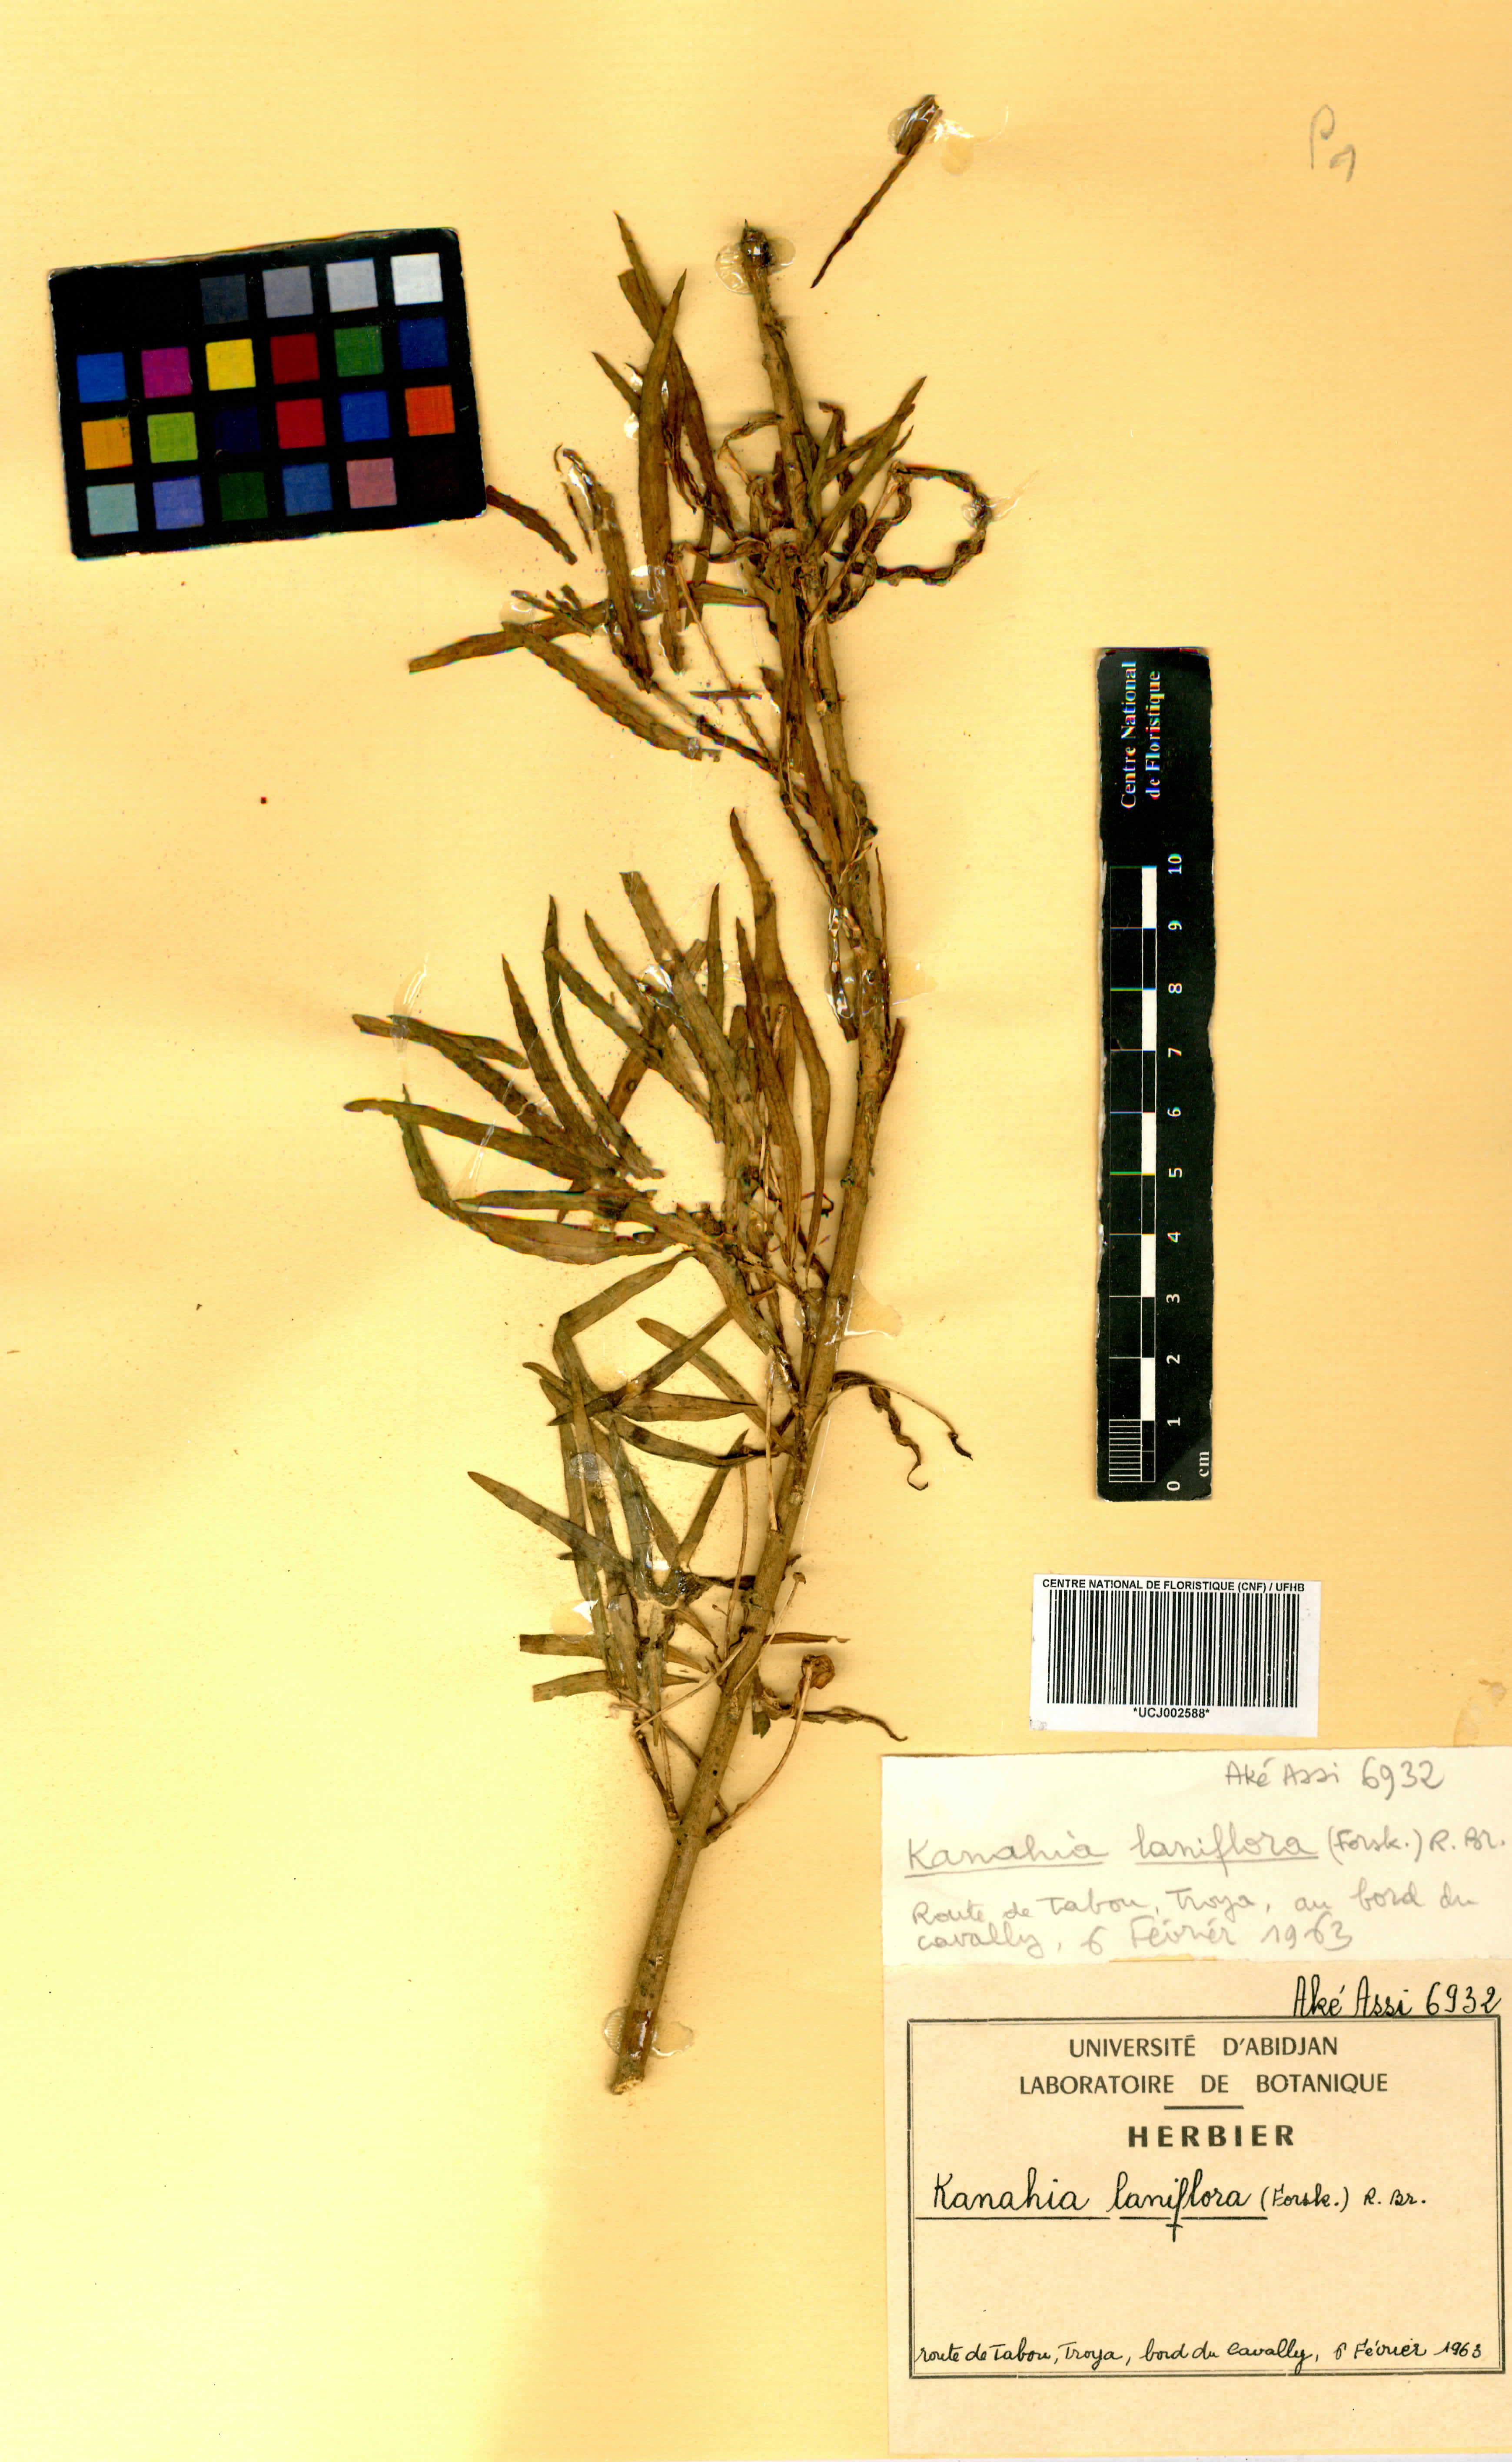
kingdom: Plantae
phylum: Tracheophyta
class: Magnoliopsida
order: Gentianales
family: Apocynaceae
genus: Kanahia
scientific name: Kanahia laniflora
